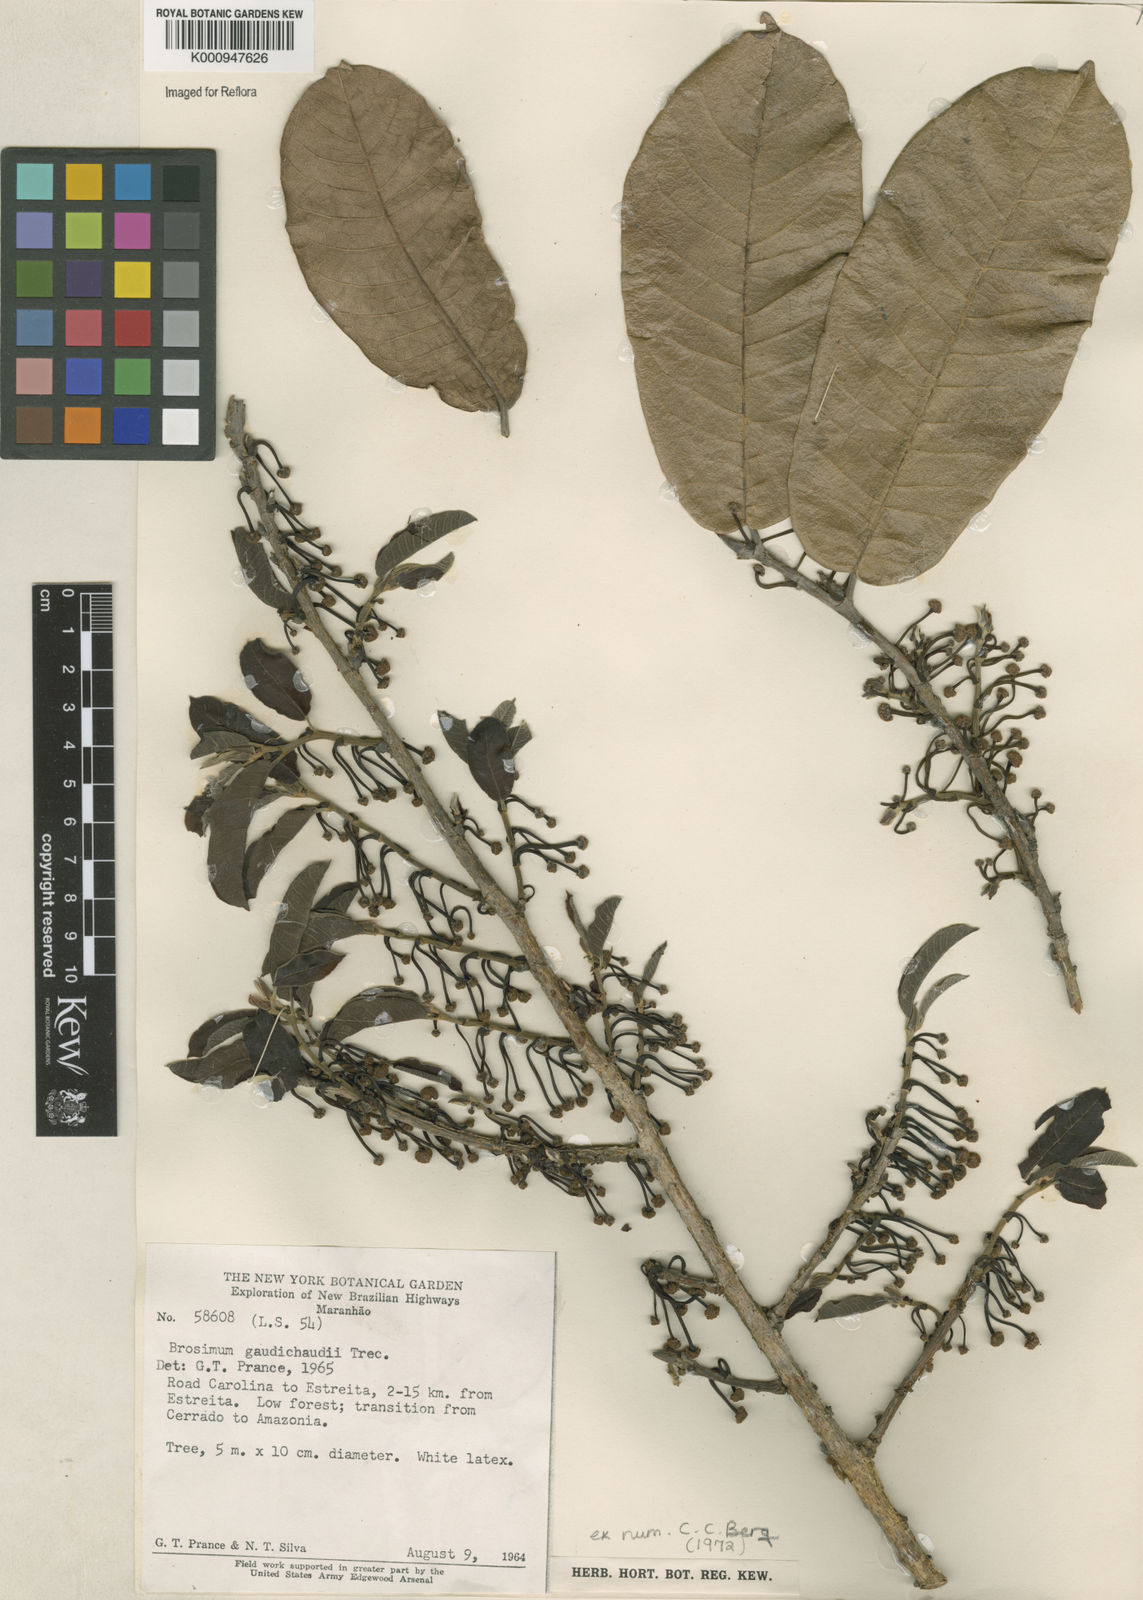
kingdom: Plantae
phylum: Tracheophyta
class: Magnoliopsida
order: Rosales
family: Moraceae
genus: Brosimum
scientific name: Brosimum
